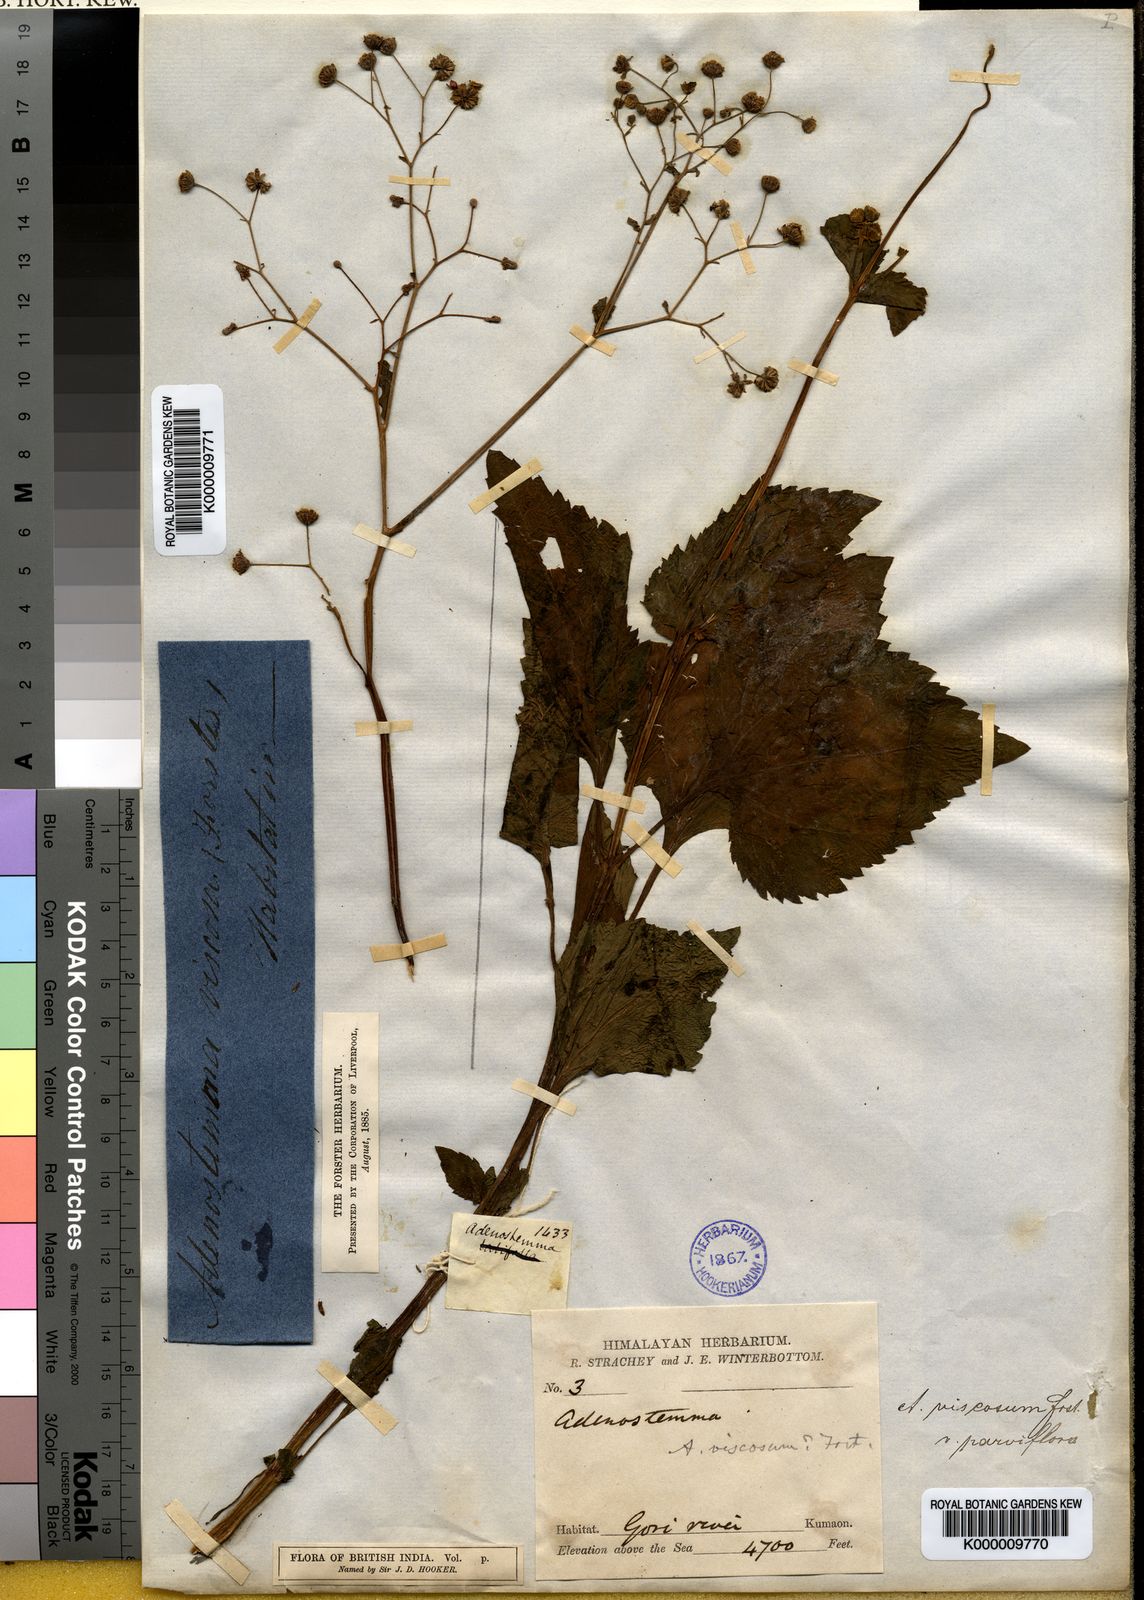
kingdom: Plantae
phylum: Tracheophyta
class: Magnoliopsida
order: Asterales
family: Asteraceae
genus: Adenostemma
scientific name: Adenostemma viscosum
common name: Dungweed
